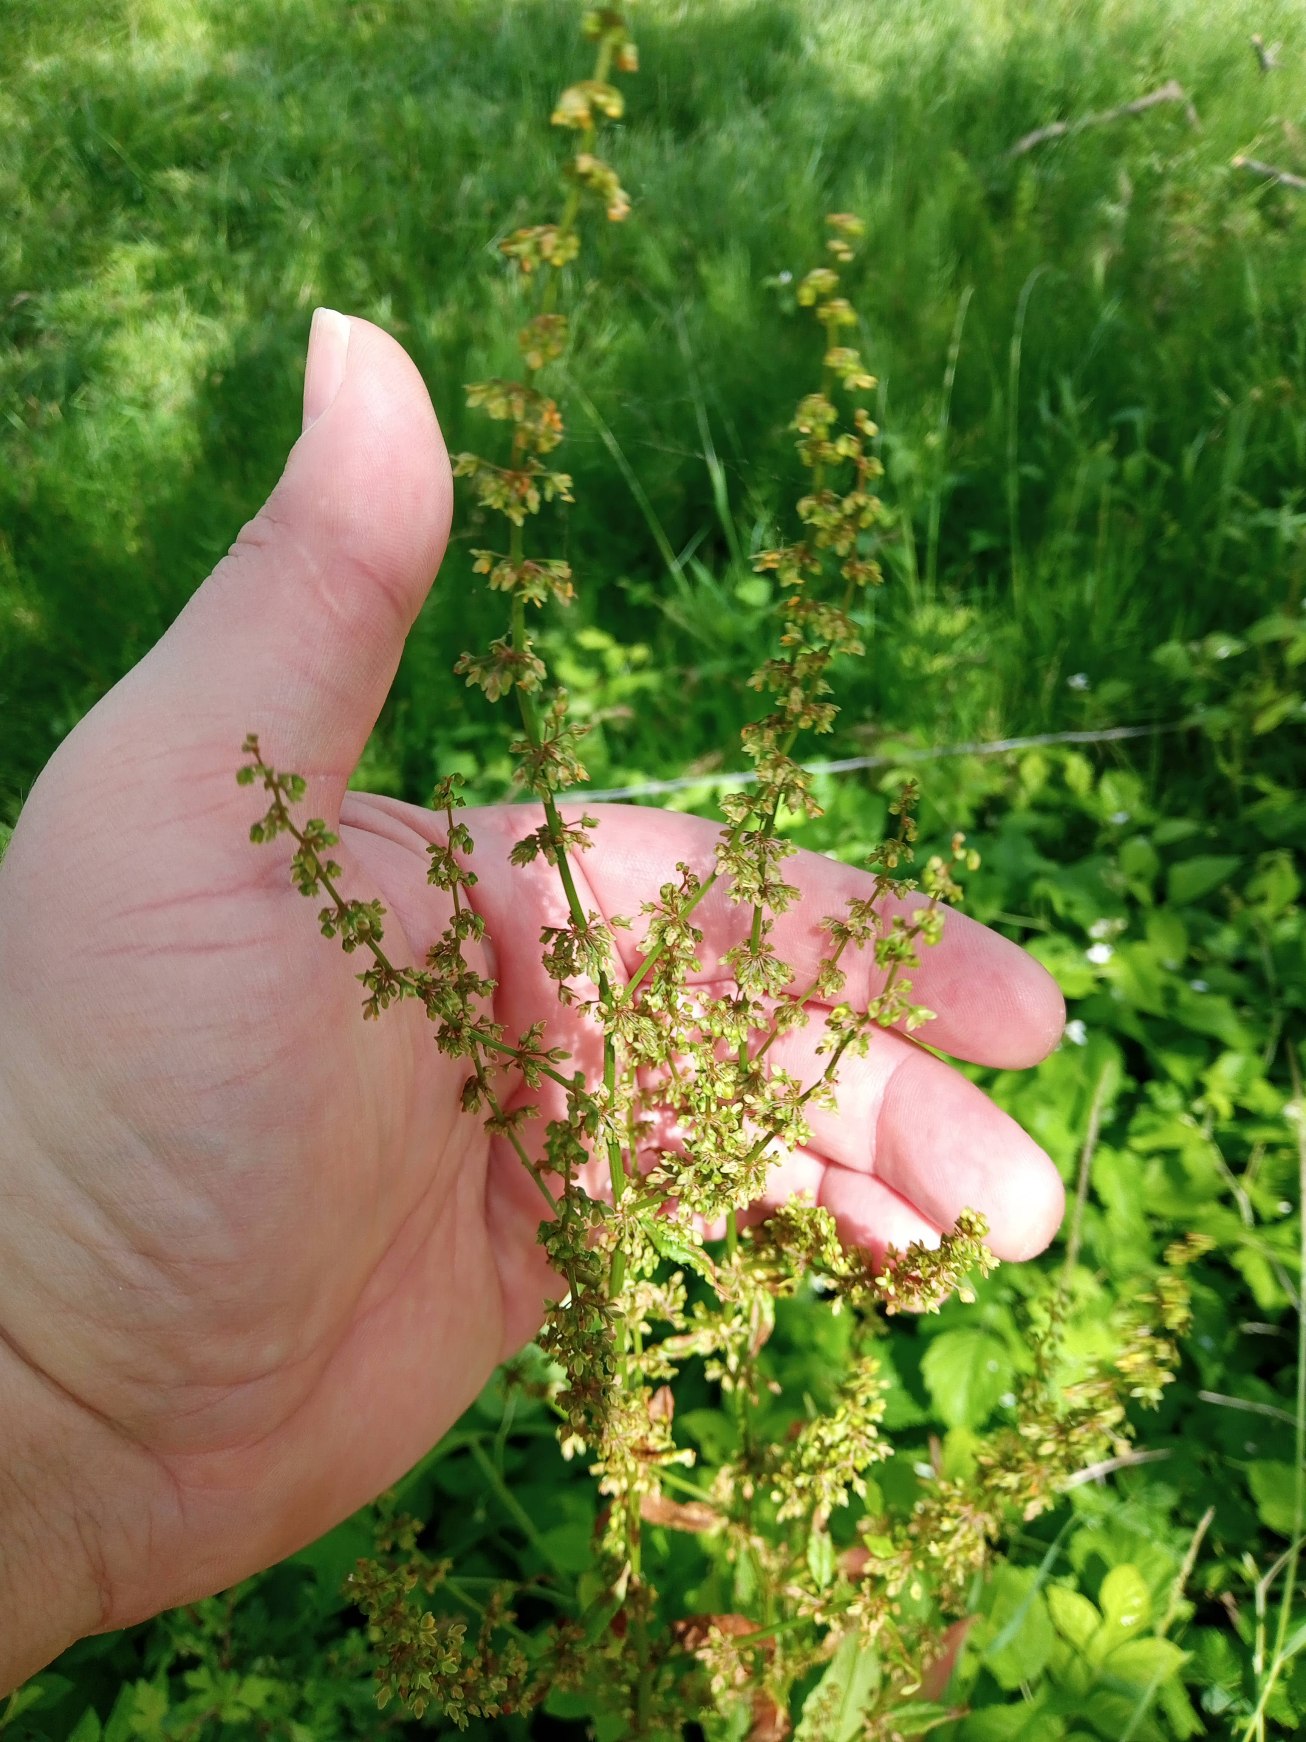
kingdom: Plantae
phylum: Tracheophyta
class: Magnoliopsida
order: Caryophyllales
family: Polygonaceae
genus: Rumex
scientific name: Rumex sanguineus
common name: Skov-skræppe
